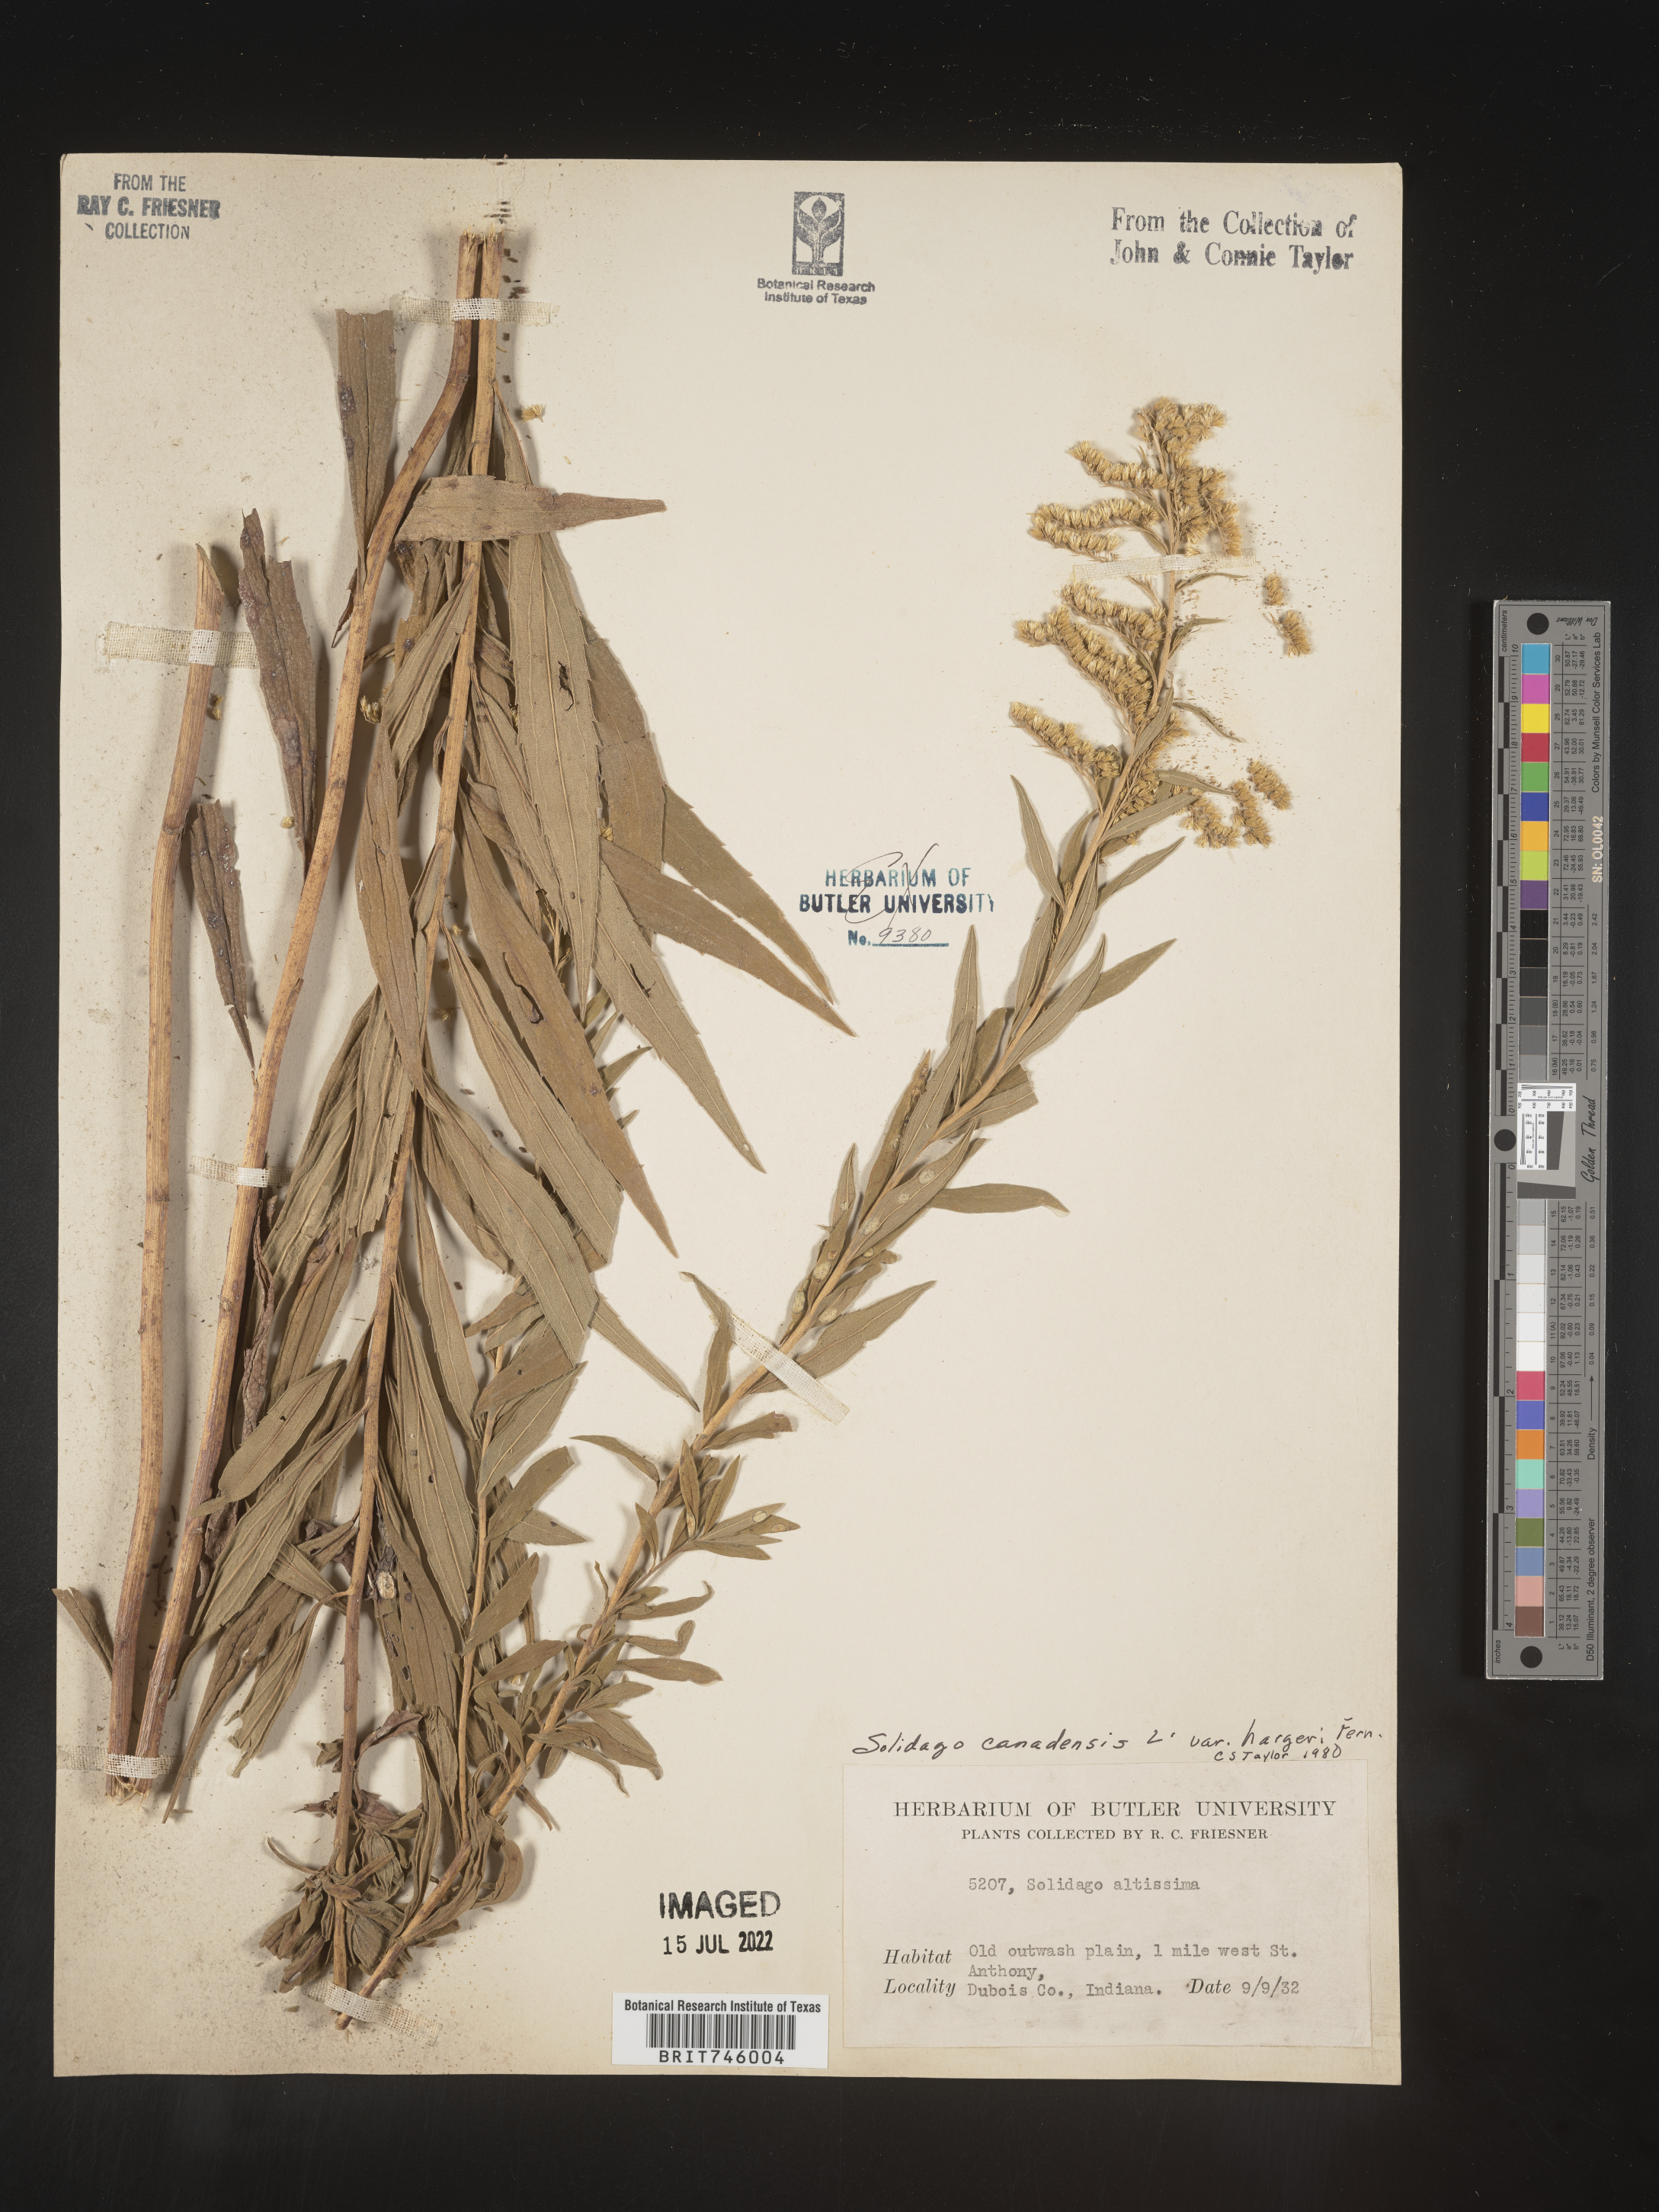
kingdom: Plantae
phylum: Tracheophyta
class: Magnoliopsida
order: Asterales
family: Asteraceae
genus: Solidago
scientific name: Solidago canadensis
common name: Canada goldenrod
